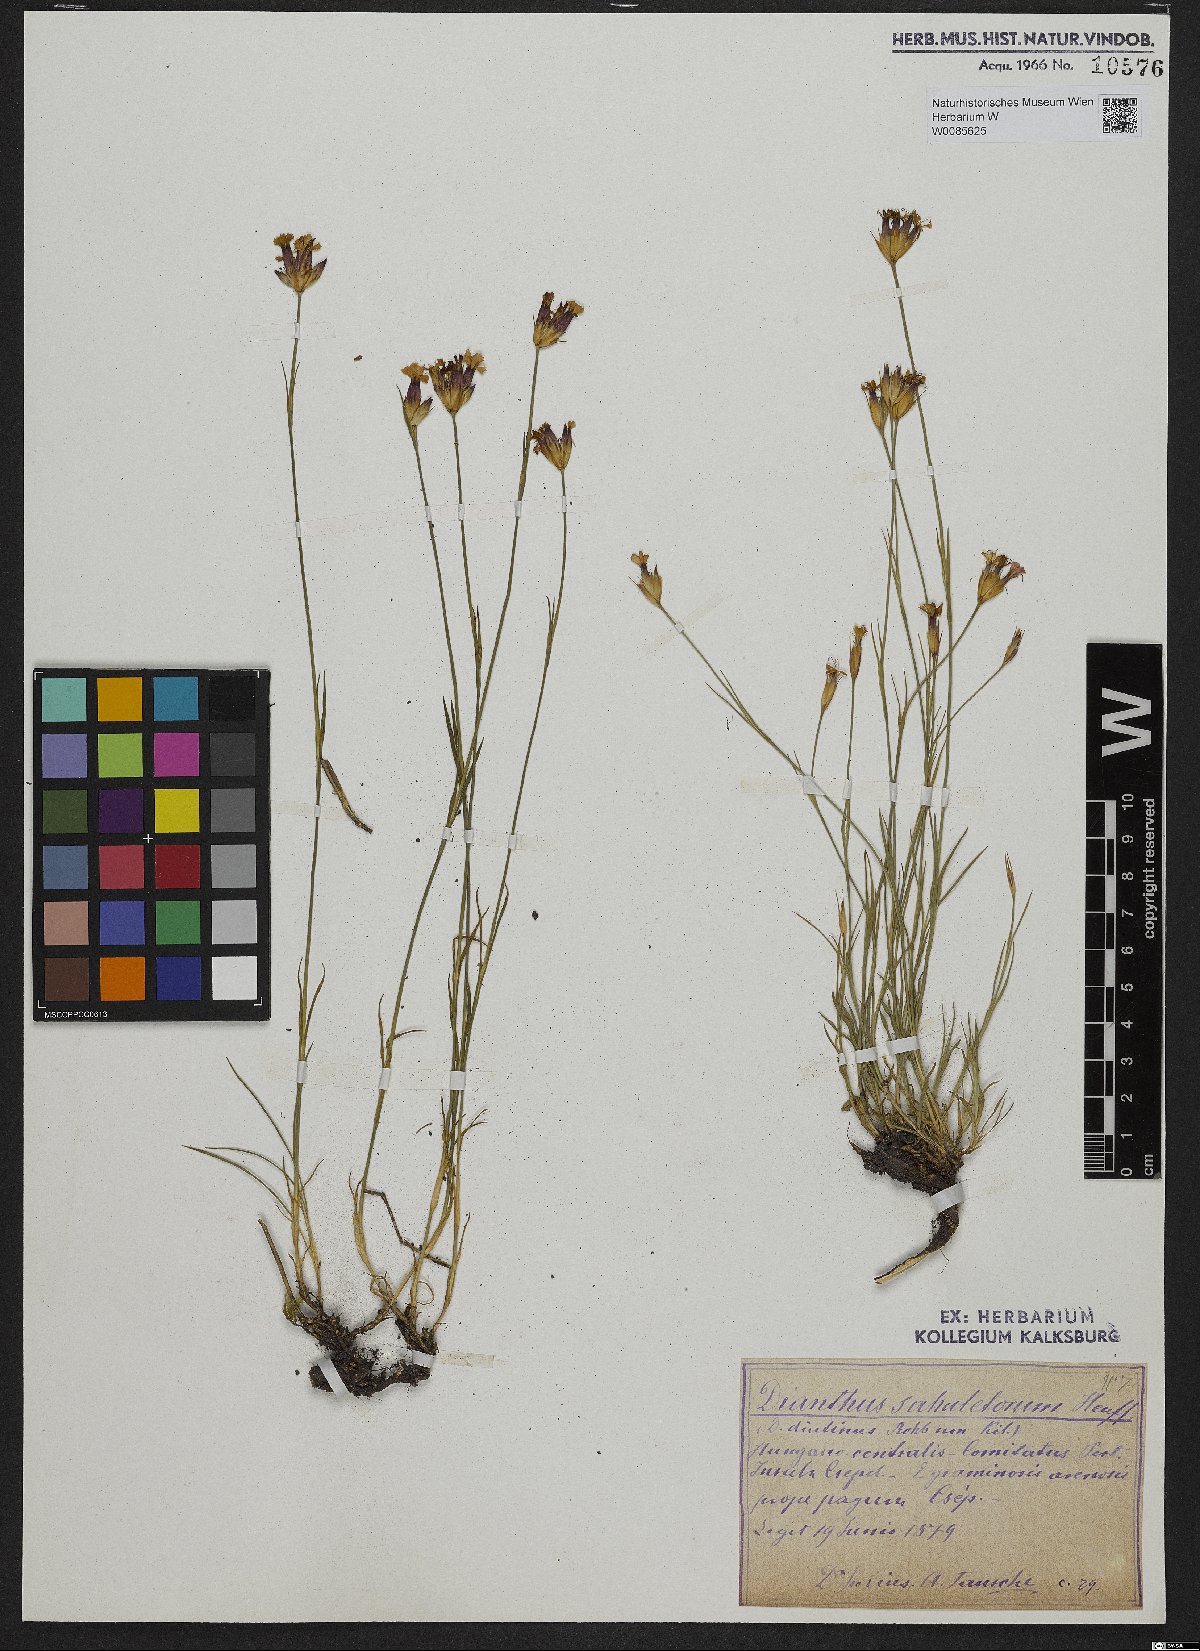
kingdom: Plantae
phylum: Tracheophyta
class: Magnoliopsida
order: Caryophyllales
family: Caryophyllaceae
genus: Dianthus
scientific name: Dianthus giganteiformis
